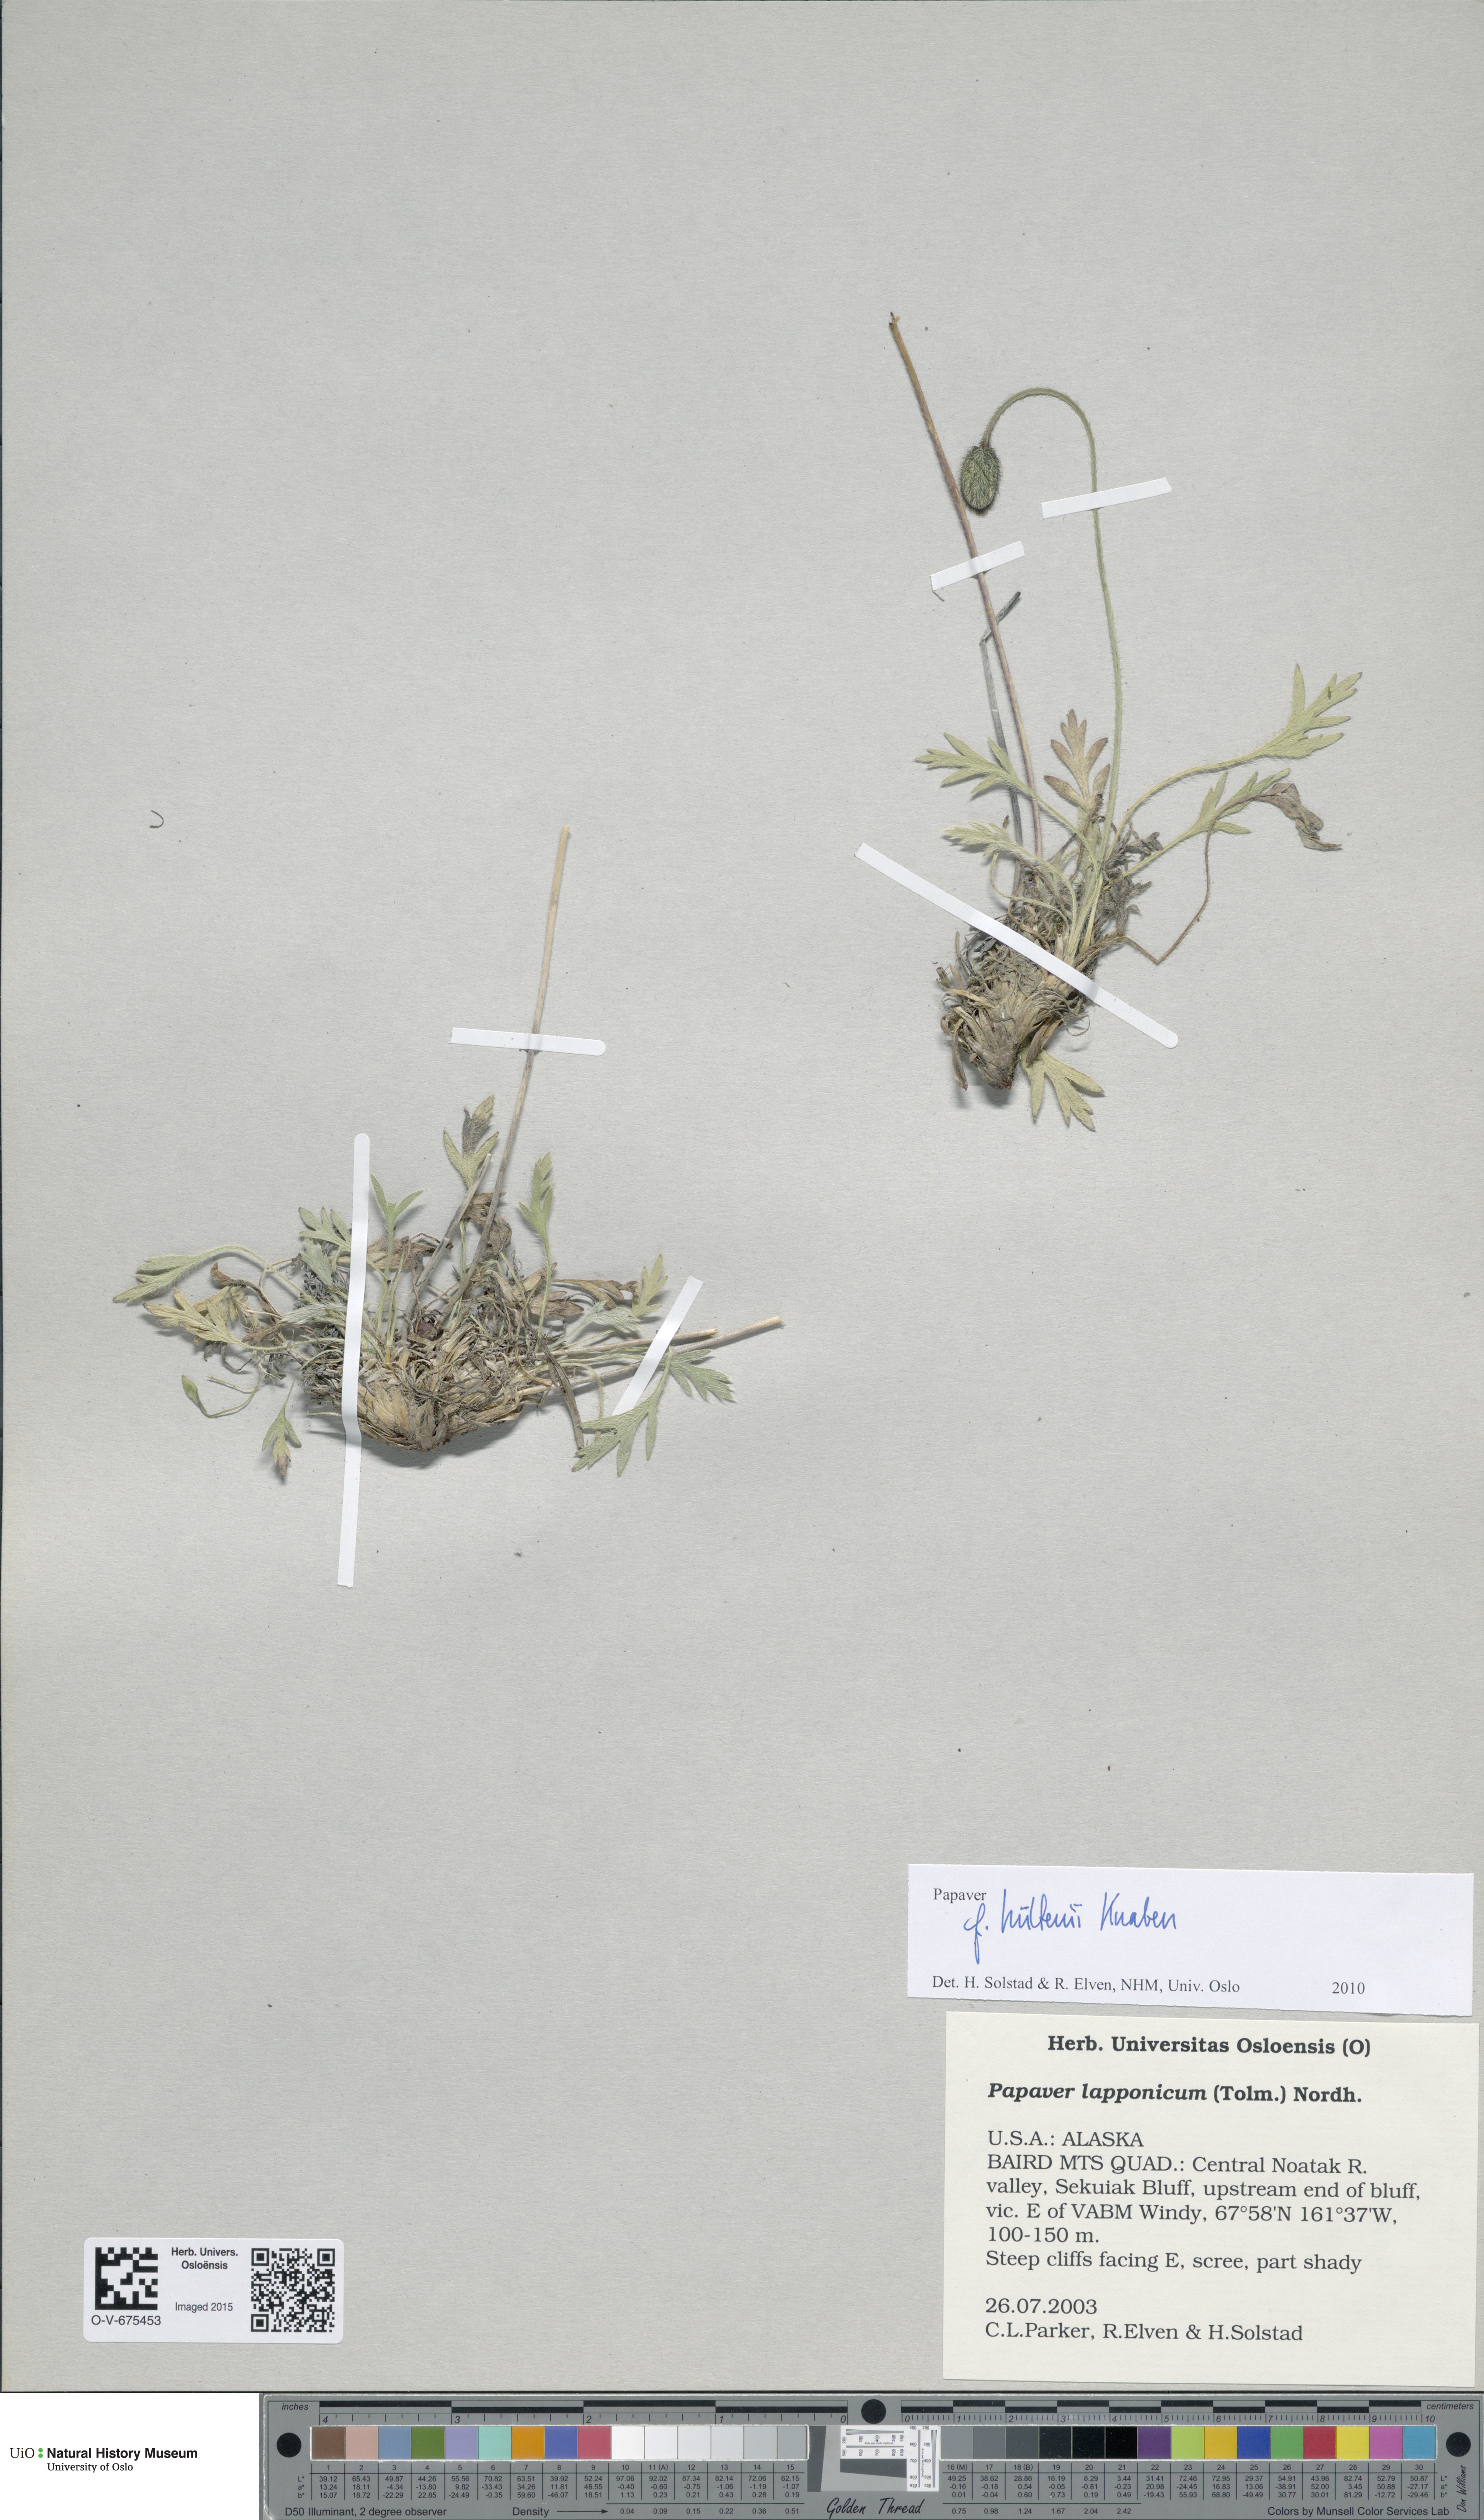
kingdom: Plantae
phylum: Tracheophyta
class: Magnoliopsida
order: Ranunculales
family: Papaveraceae
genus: Papaver
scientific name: Papaver lapponicum
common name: Lapland poppy
